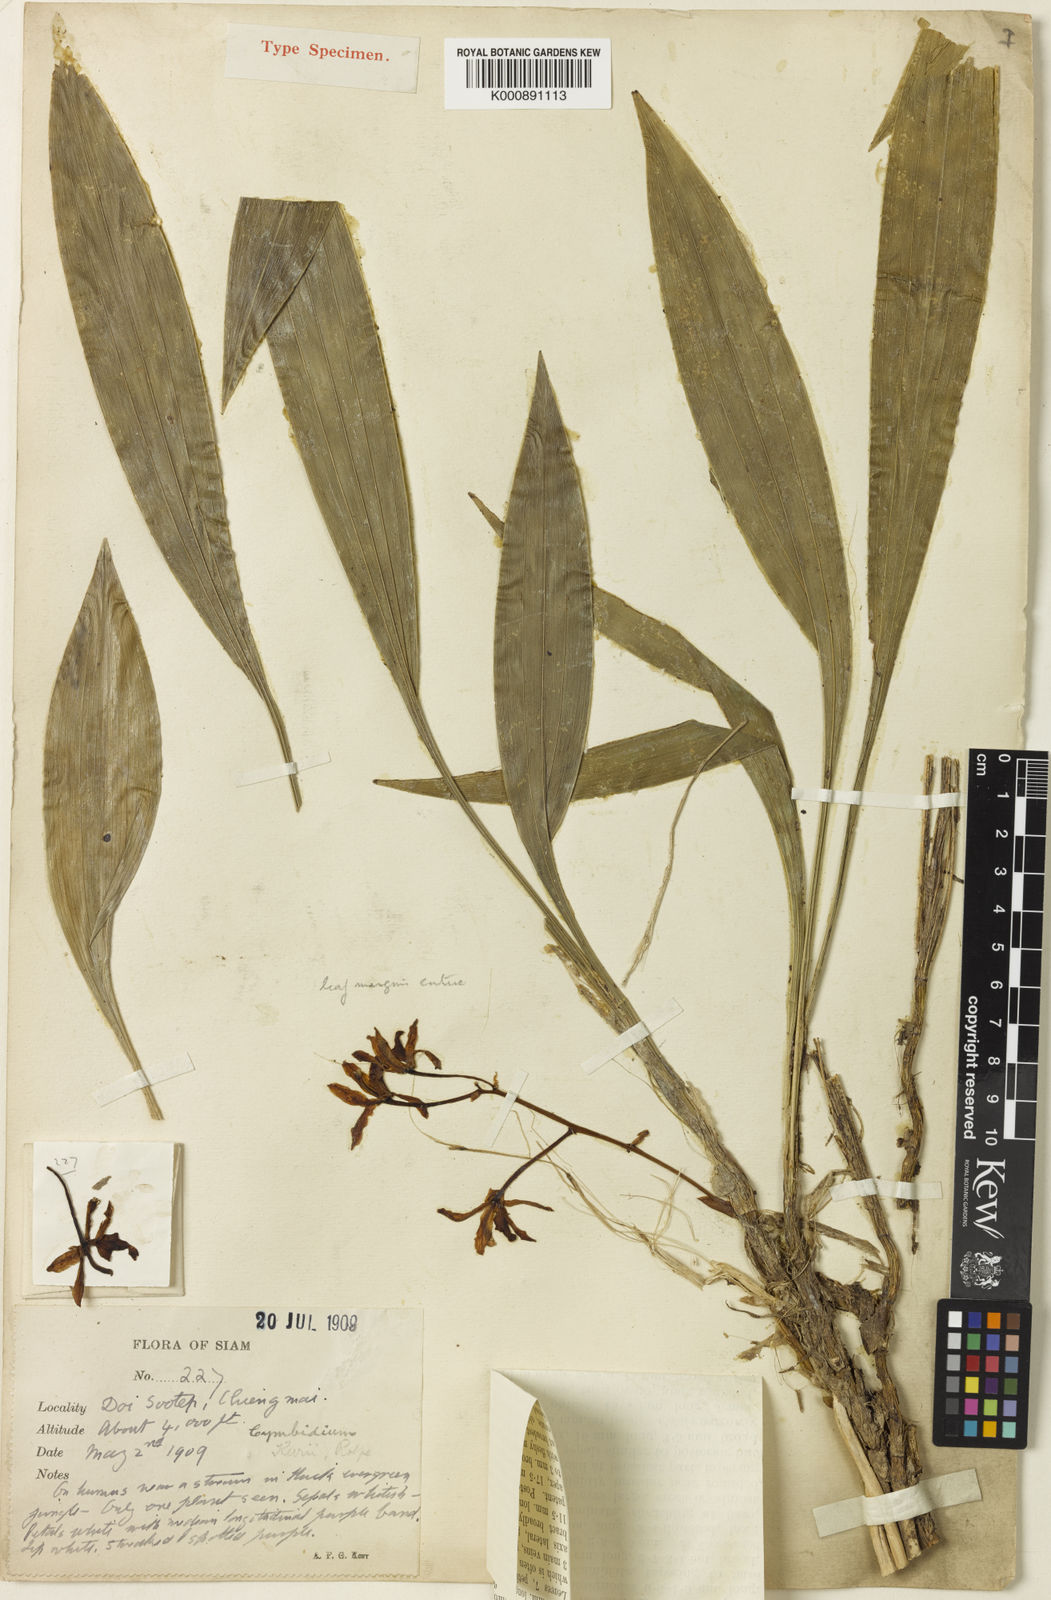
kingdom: Plantae
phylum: Tracheophyta
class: Liliopsida
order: Asparagales
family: Orchidaceae
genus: Cymbidium
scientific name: Cymbidium lancifolium
